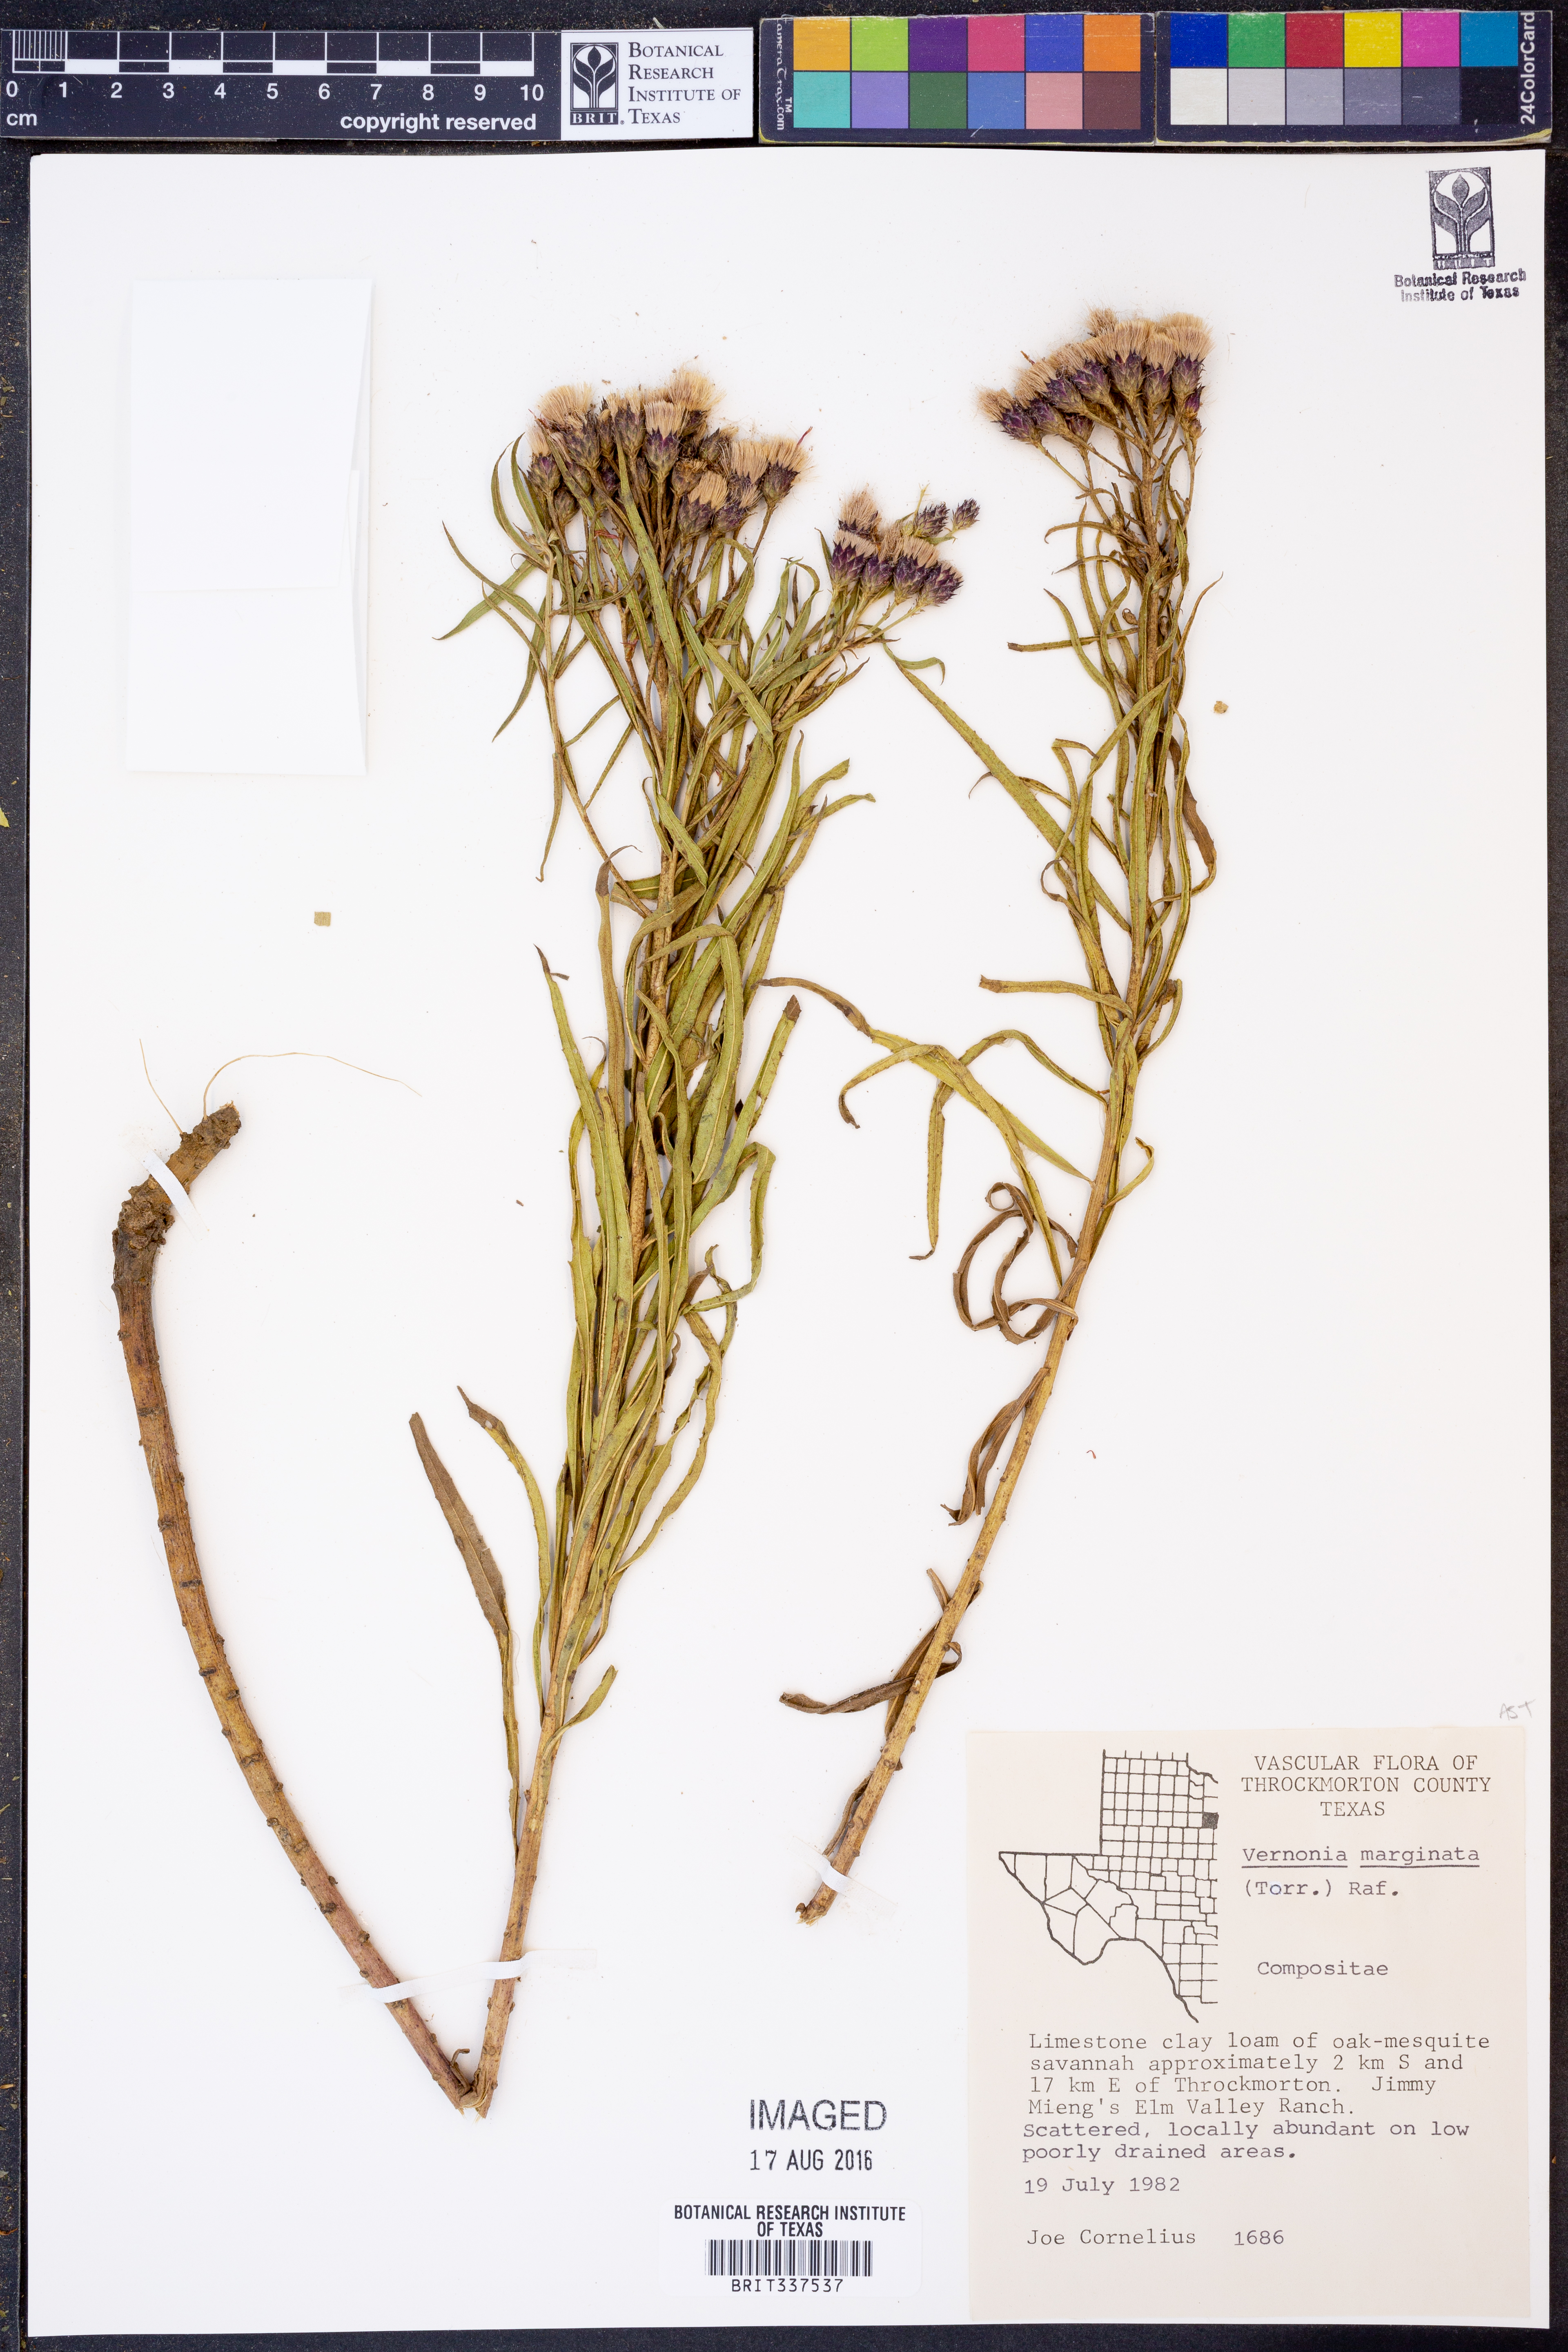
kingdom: Plantae
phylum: Tracheophyta
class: Magnoliopsida
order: Asterales
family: Asteraceae
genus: Vernonia
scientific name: Vernonia marginata
